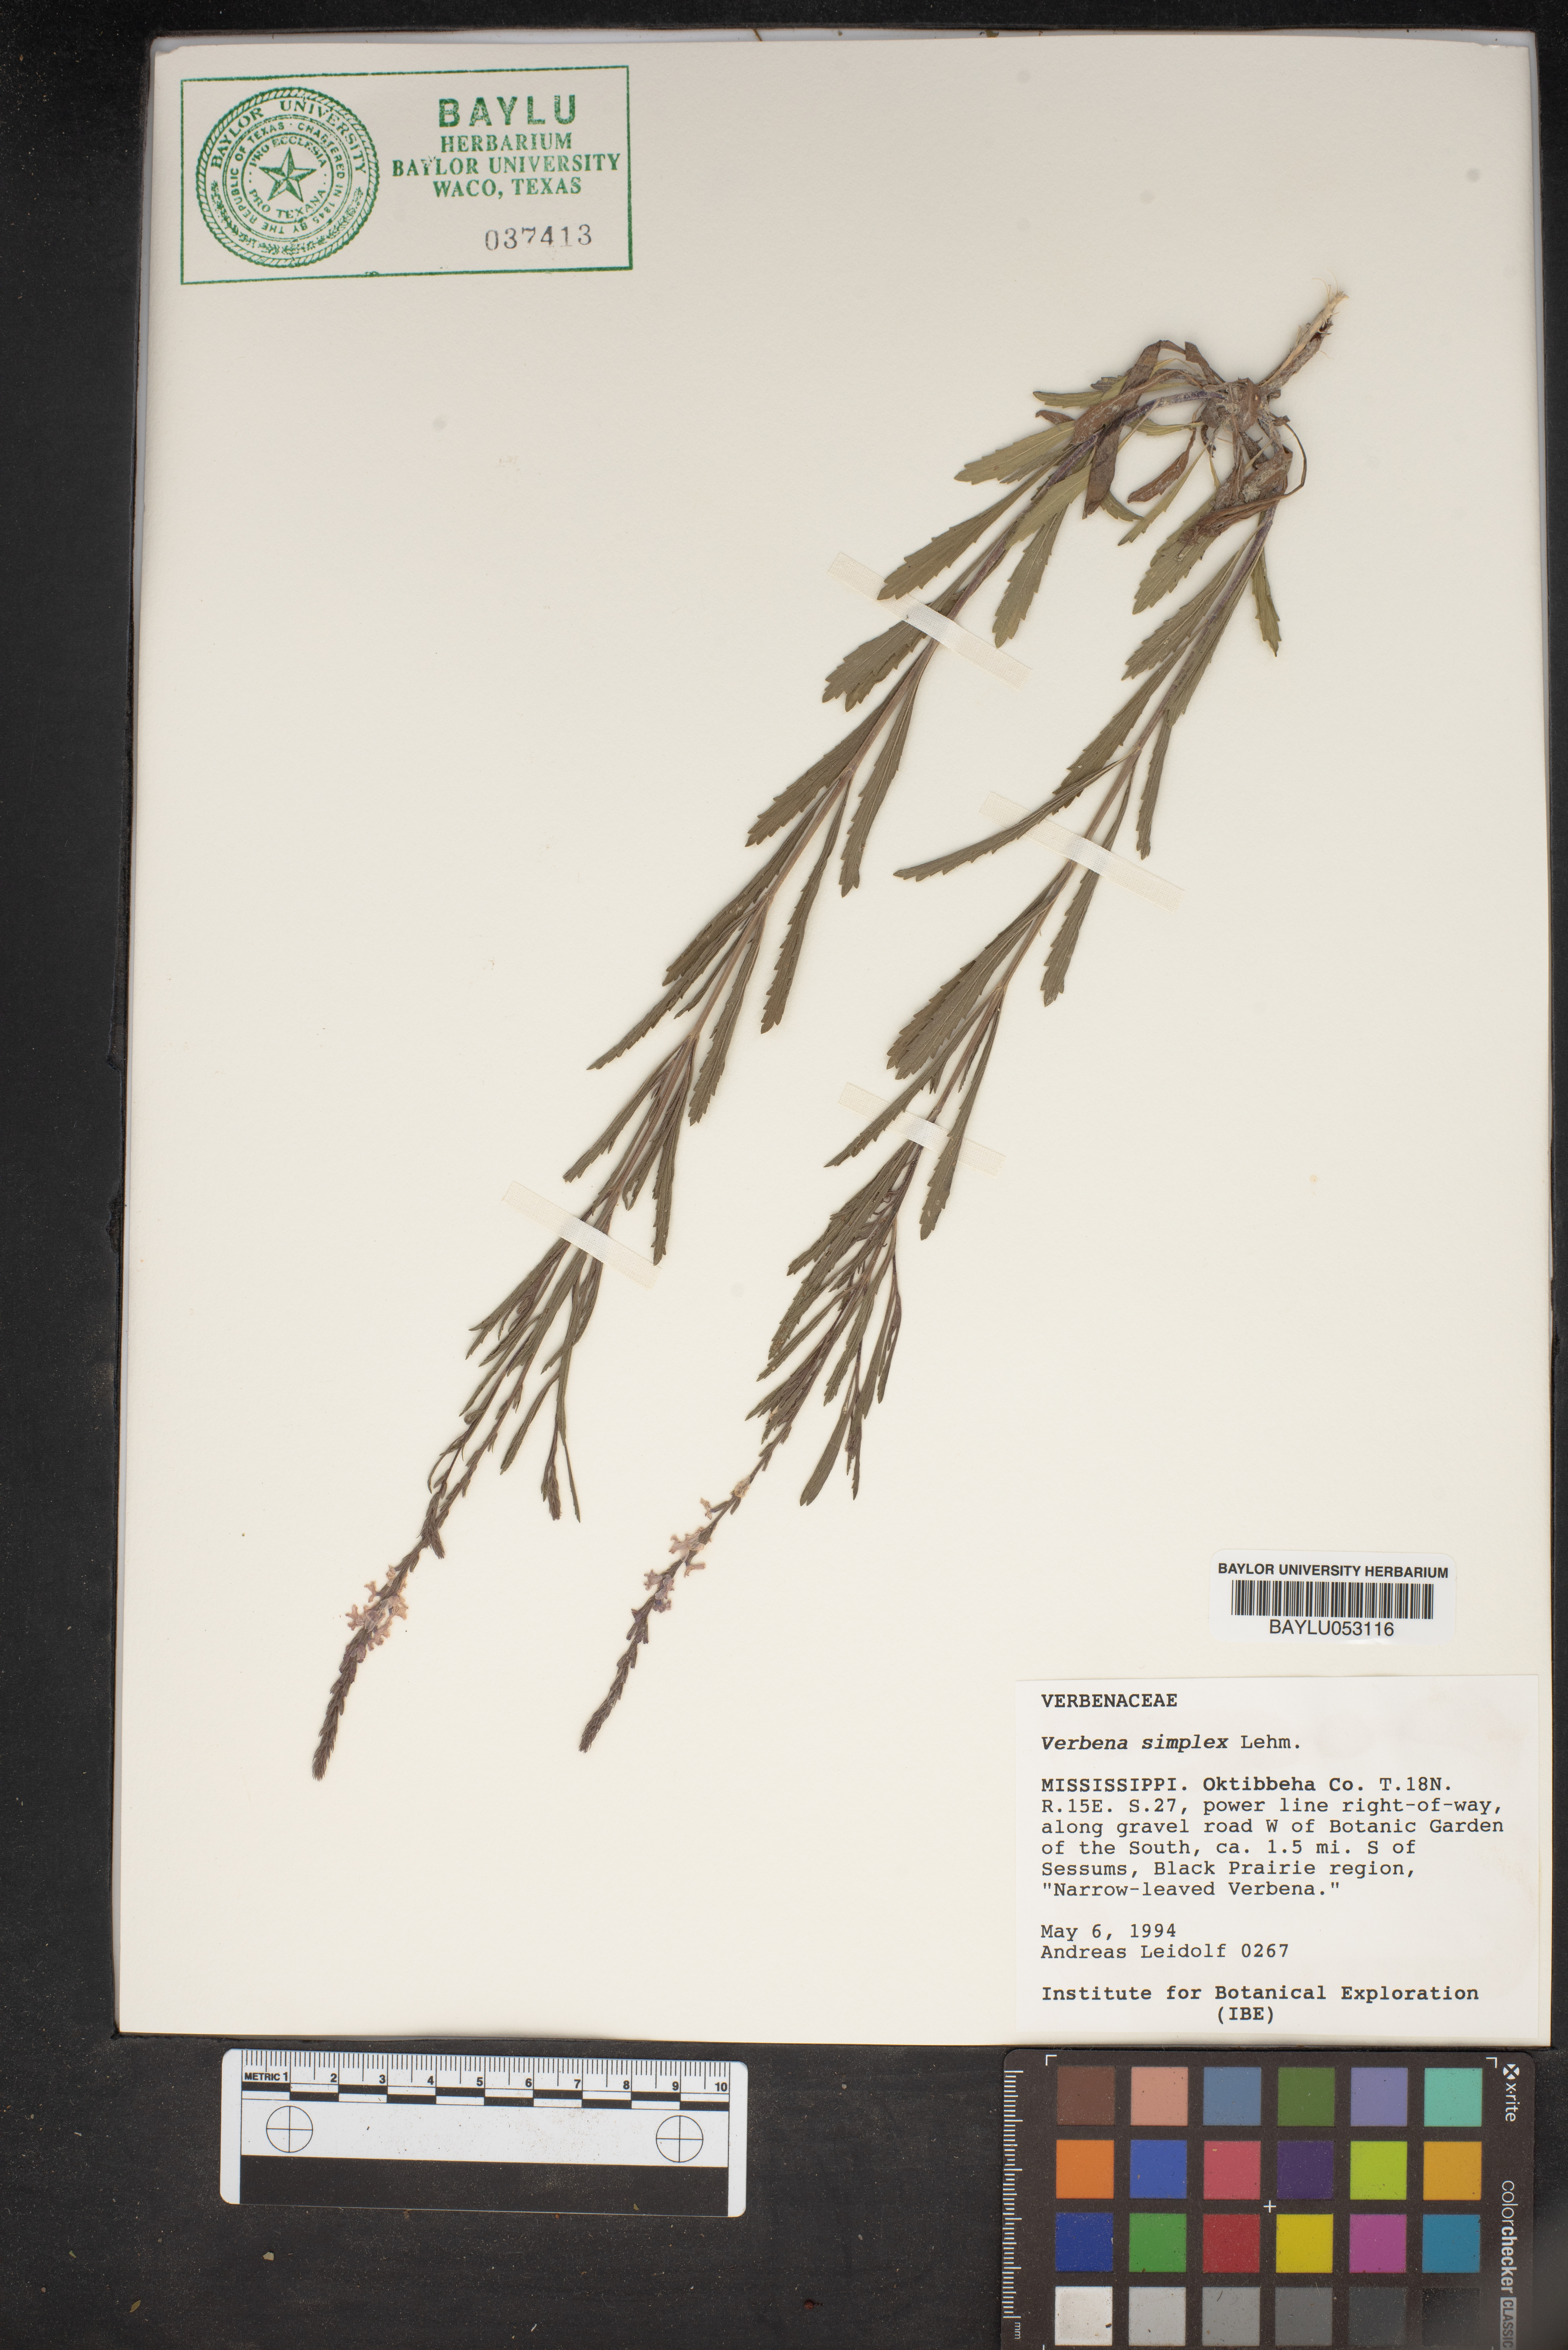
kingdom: Plantae
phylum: Tracheophyta
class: Magnoliopsida
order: Lamiales
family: Verbenaceae
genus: Verbena
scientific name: Verbena simplex
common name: Narrow-leaf vervain
